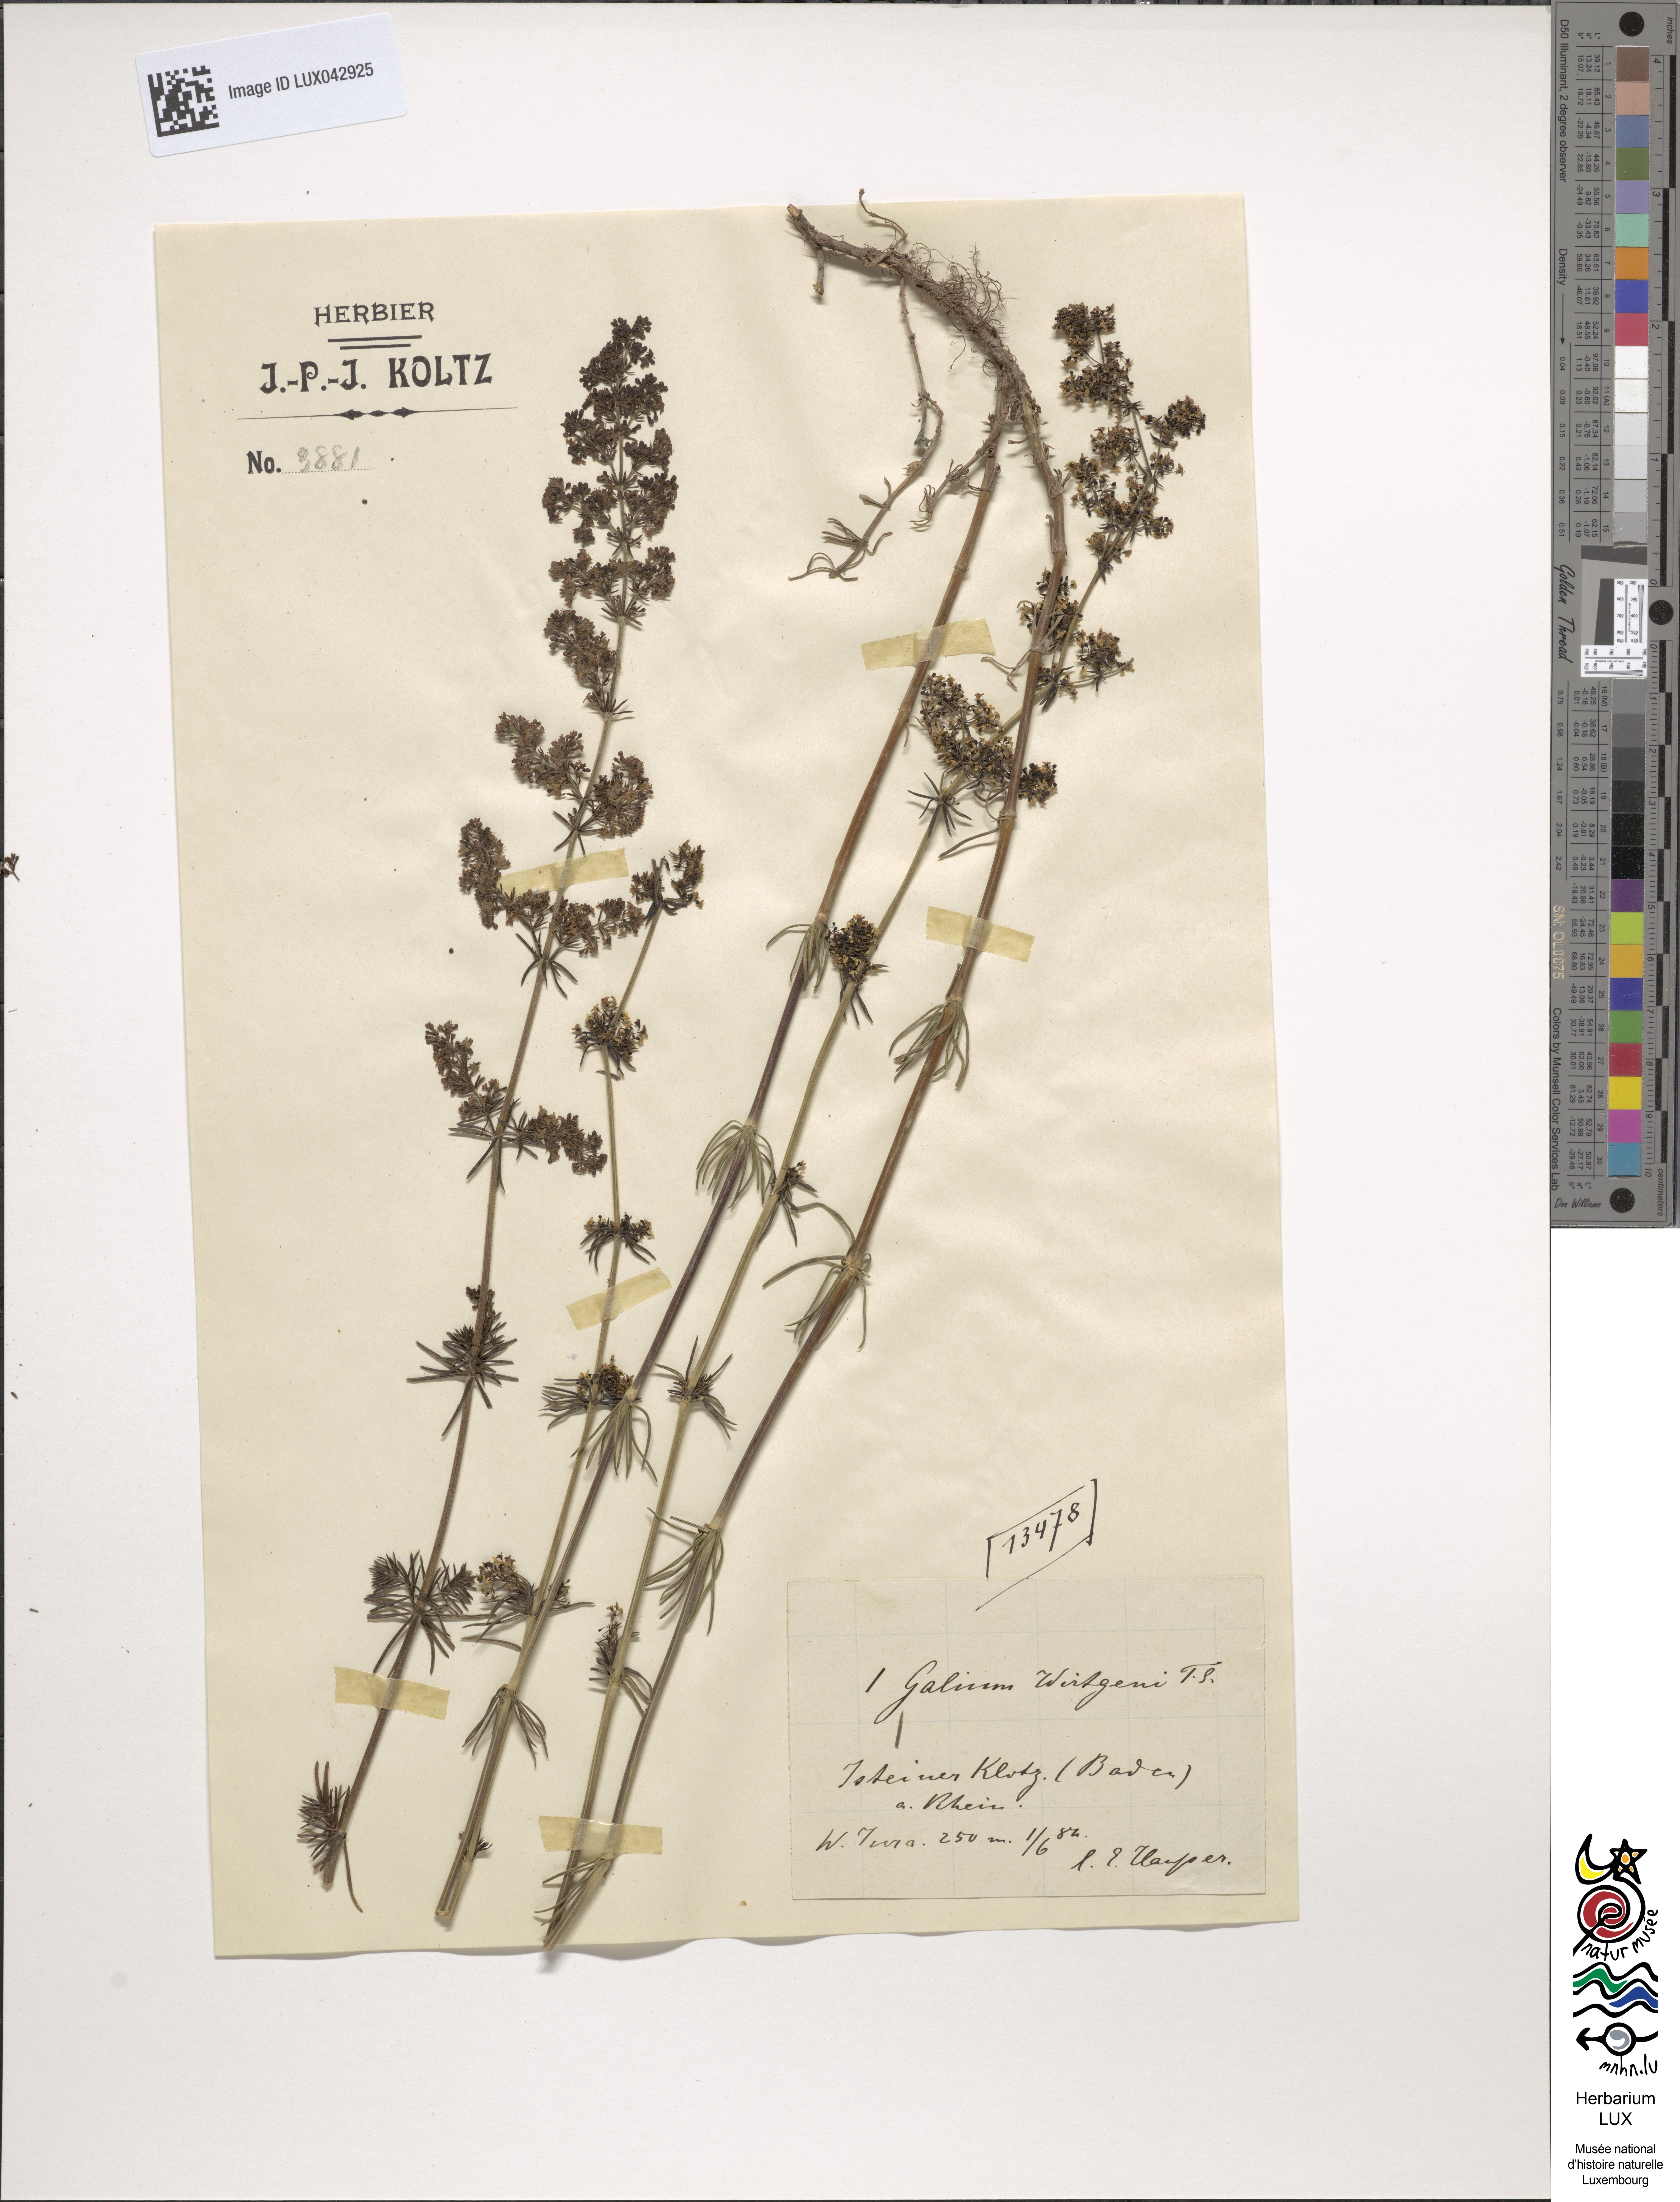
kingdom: Plantae
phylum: Tracheophyta
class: Magnoliopsida
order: Gentianales
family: Rubiaceae
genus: Galium
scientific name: Galium verum
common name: Lady's bedstraw
